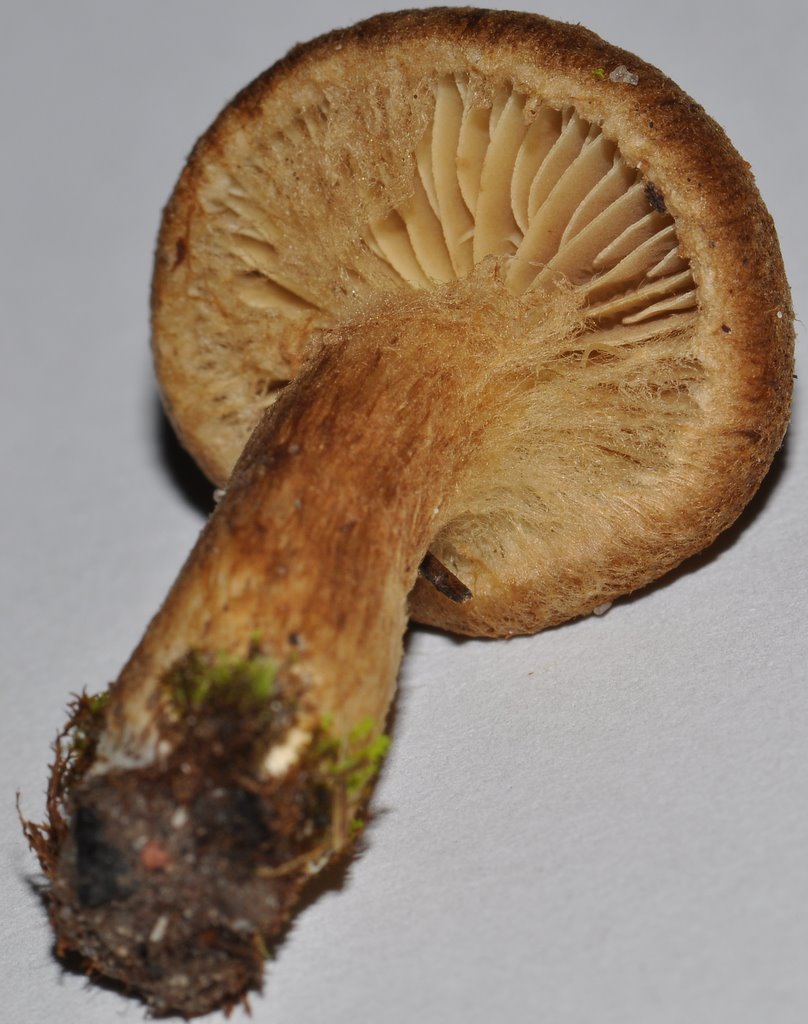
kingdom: Fungi
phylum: Basidiomycota
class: Agaricomycetes
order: Agaricales
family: Inocybaceae
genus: Mallocybe
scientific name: Mallocybe plebeia
